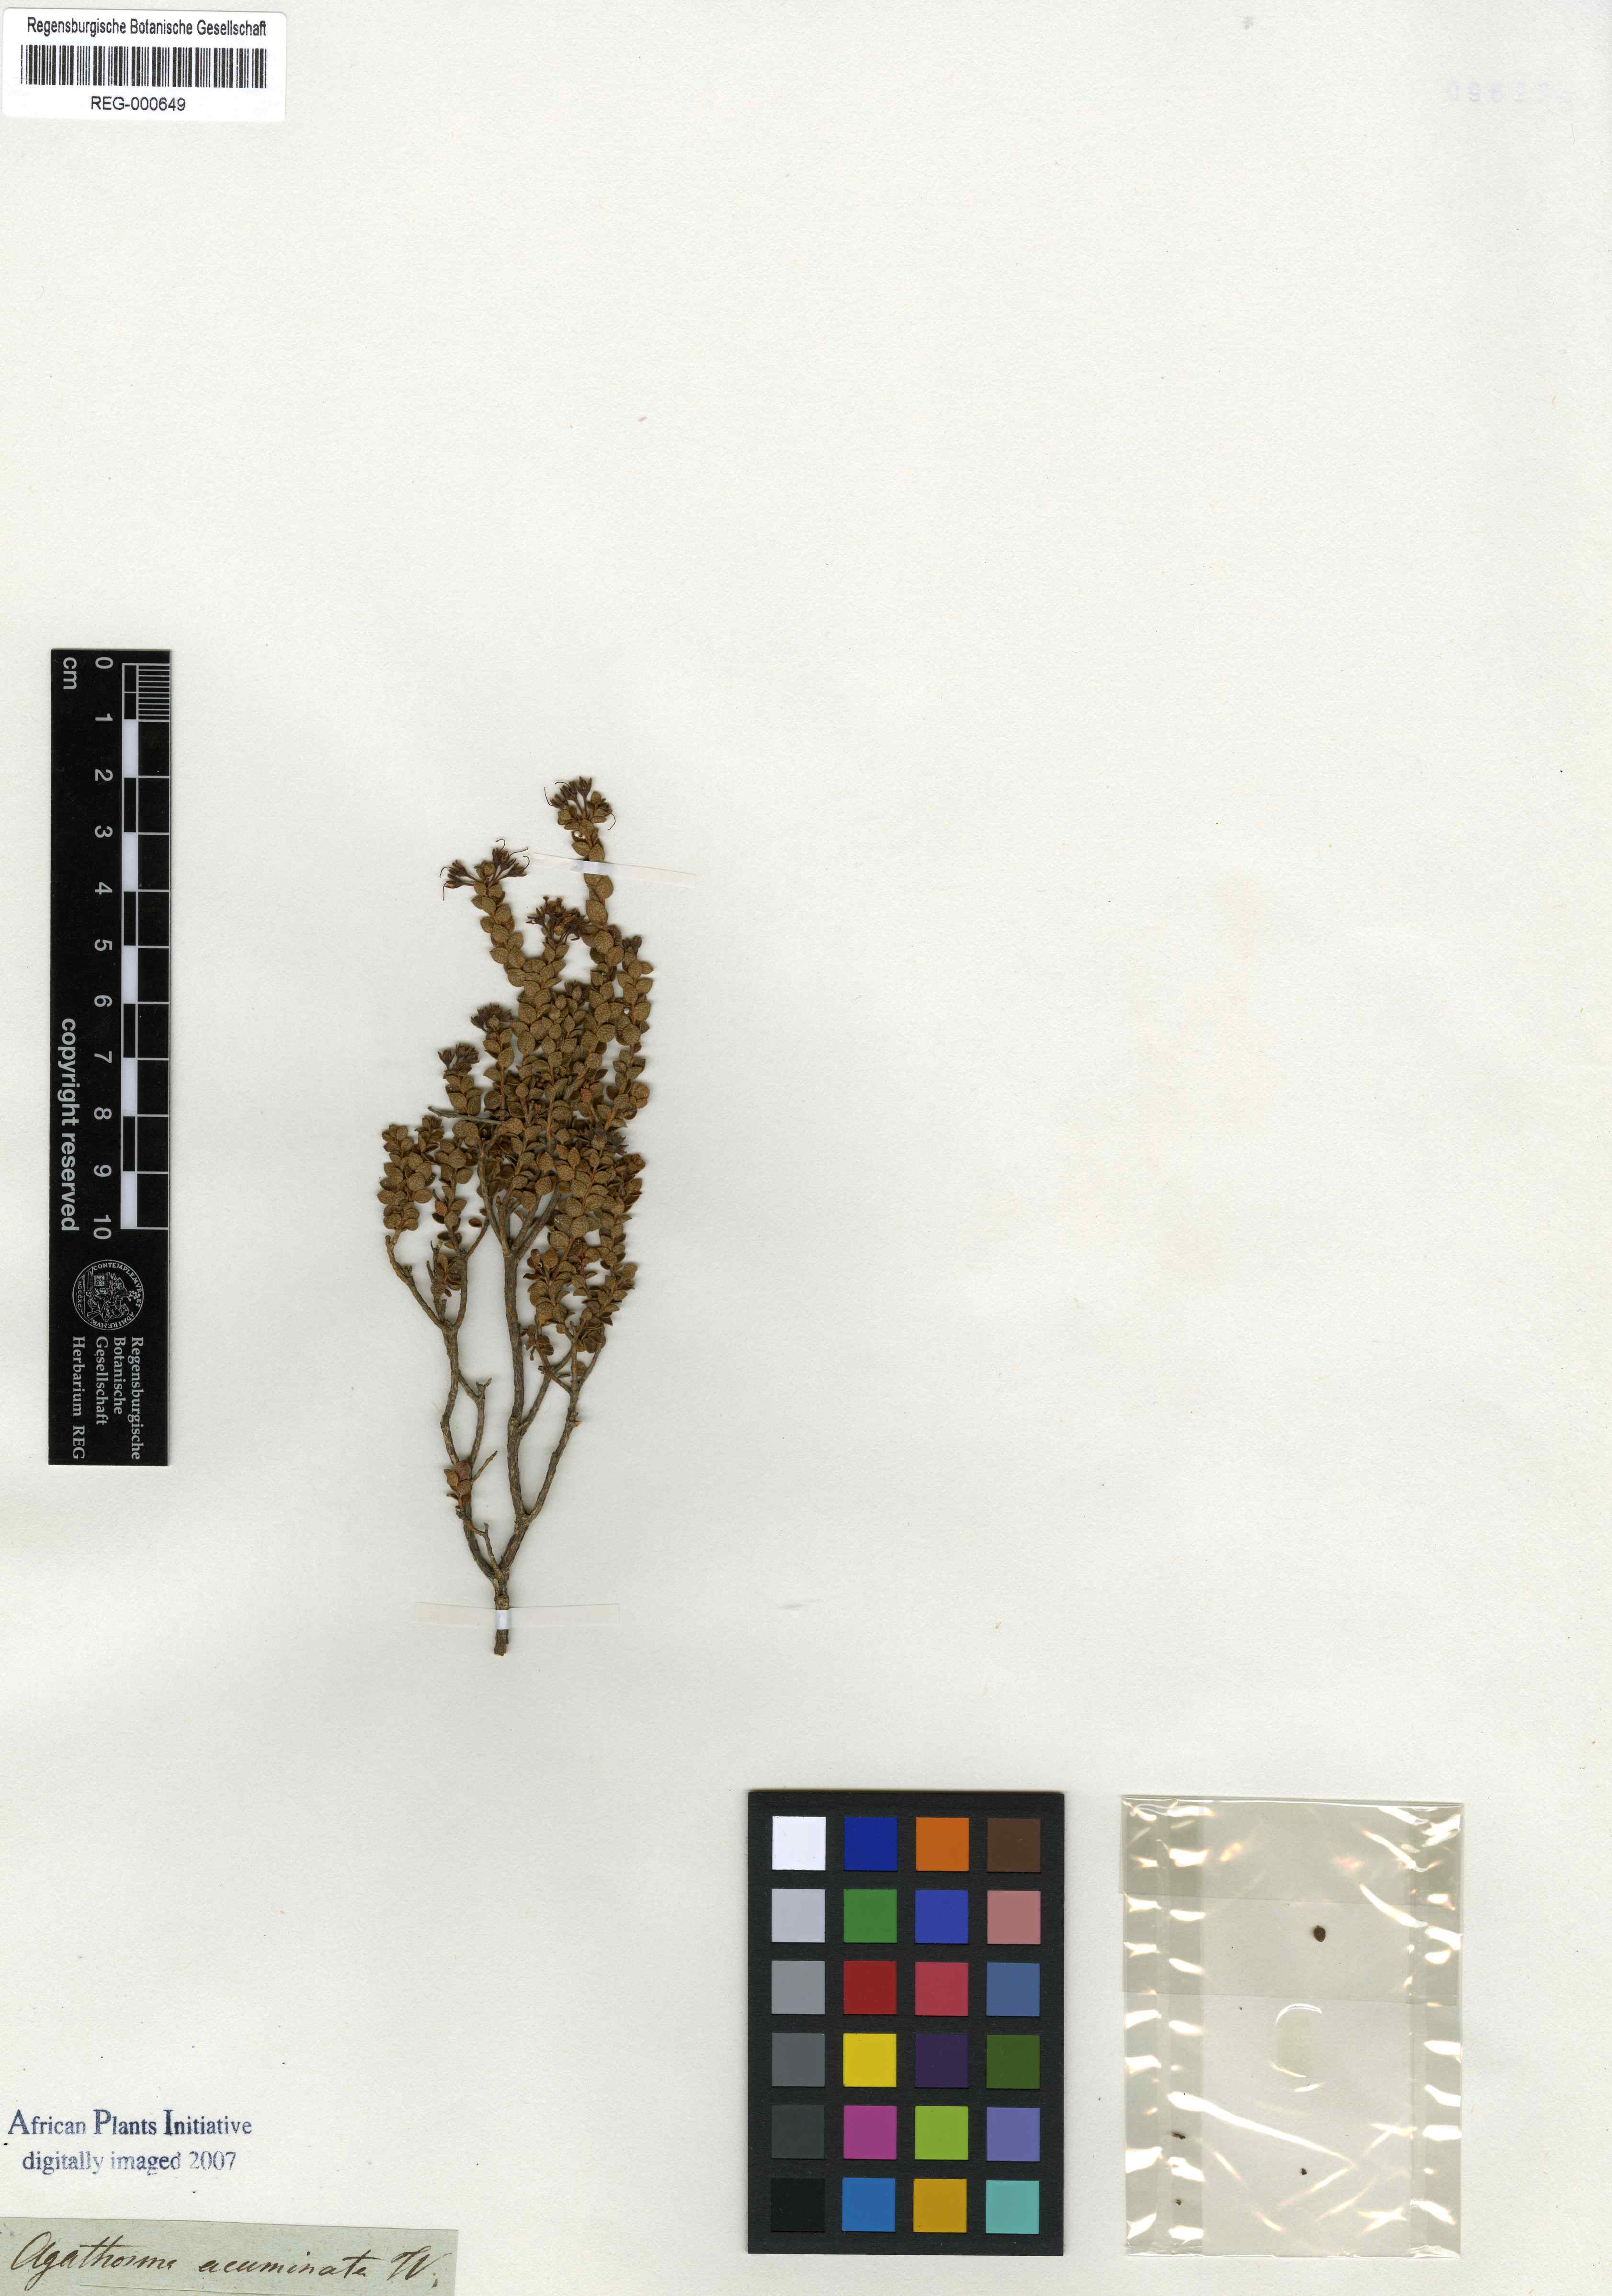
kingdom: Plantae
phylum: Tracheophyta
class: Magnoliopsida
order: Sapindales
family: Rutaceae
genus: Agathosma
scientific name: Agathosma ovalifolia
